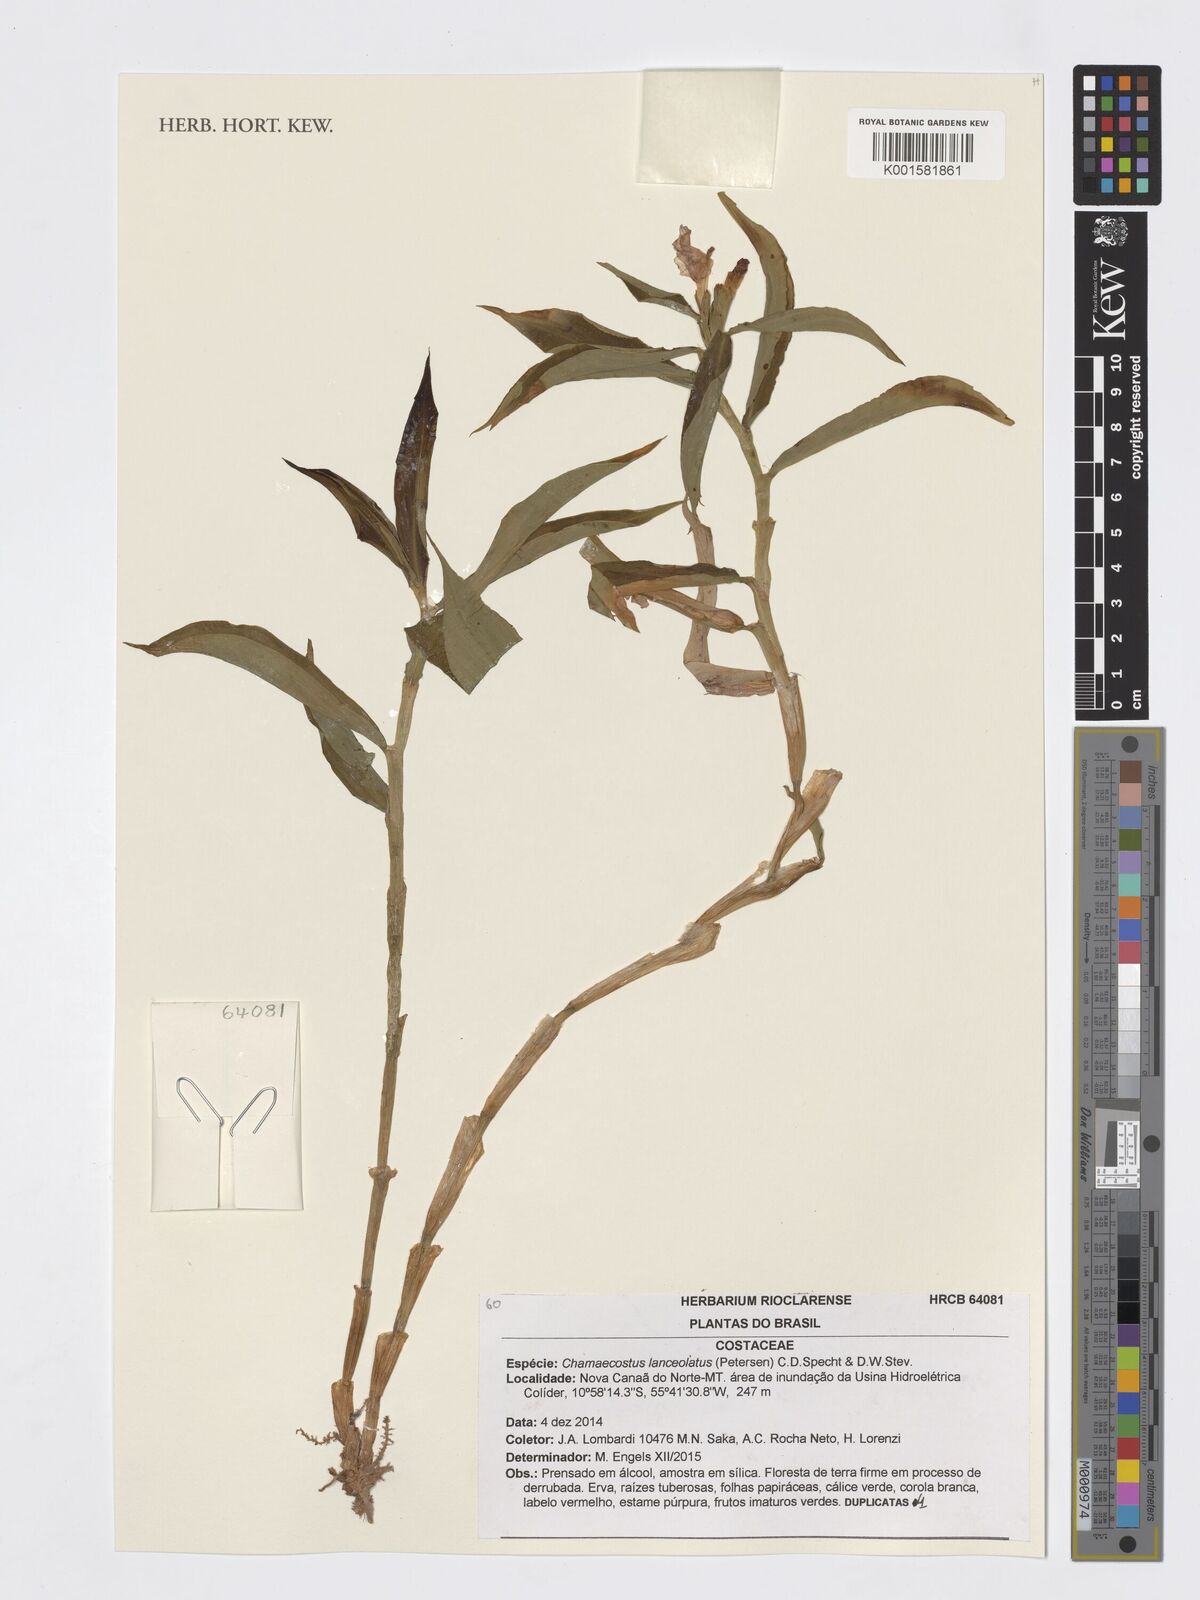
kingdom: Plantae
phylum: Tracheophyta
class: Liliopsida
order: Zingiberales
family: Costaceae
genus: Chamaecostus
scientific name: Chamaecostus lanceolatus
